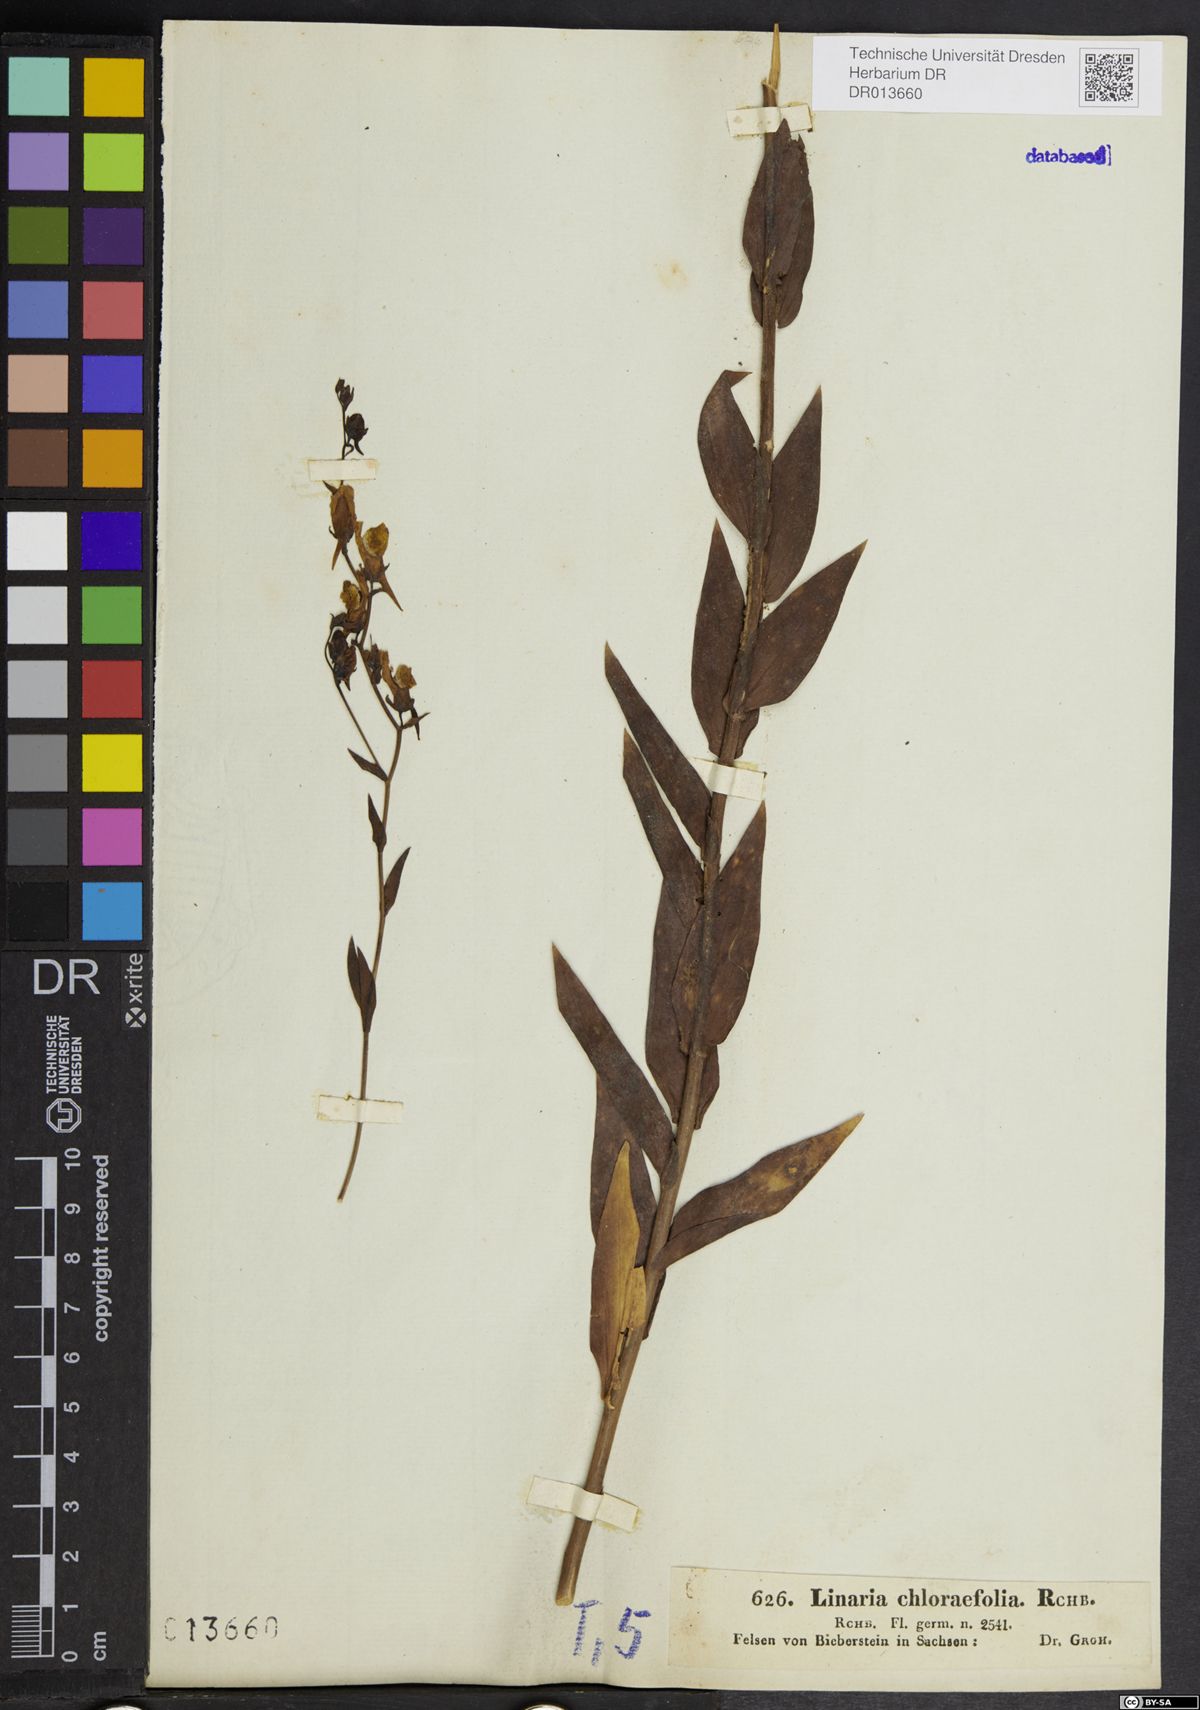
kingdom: Plantae
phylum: Tracheophyta
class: Magnoliopsida
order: Lamiales
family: Plantaginaceae
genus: Linaria
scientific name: Linaria genistifolia
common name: Broomleaf toadflax
